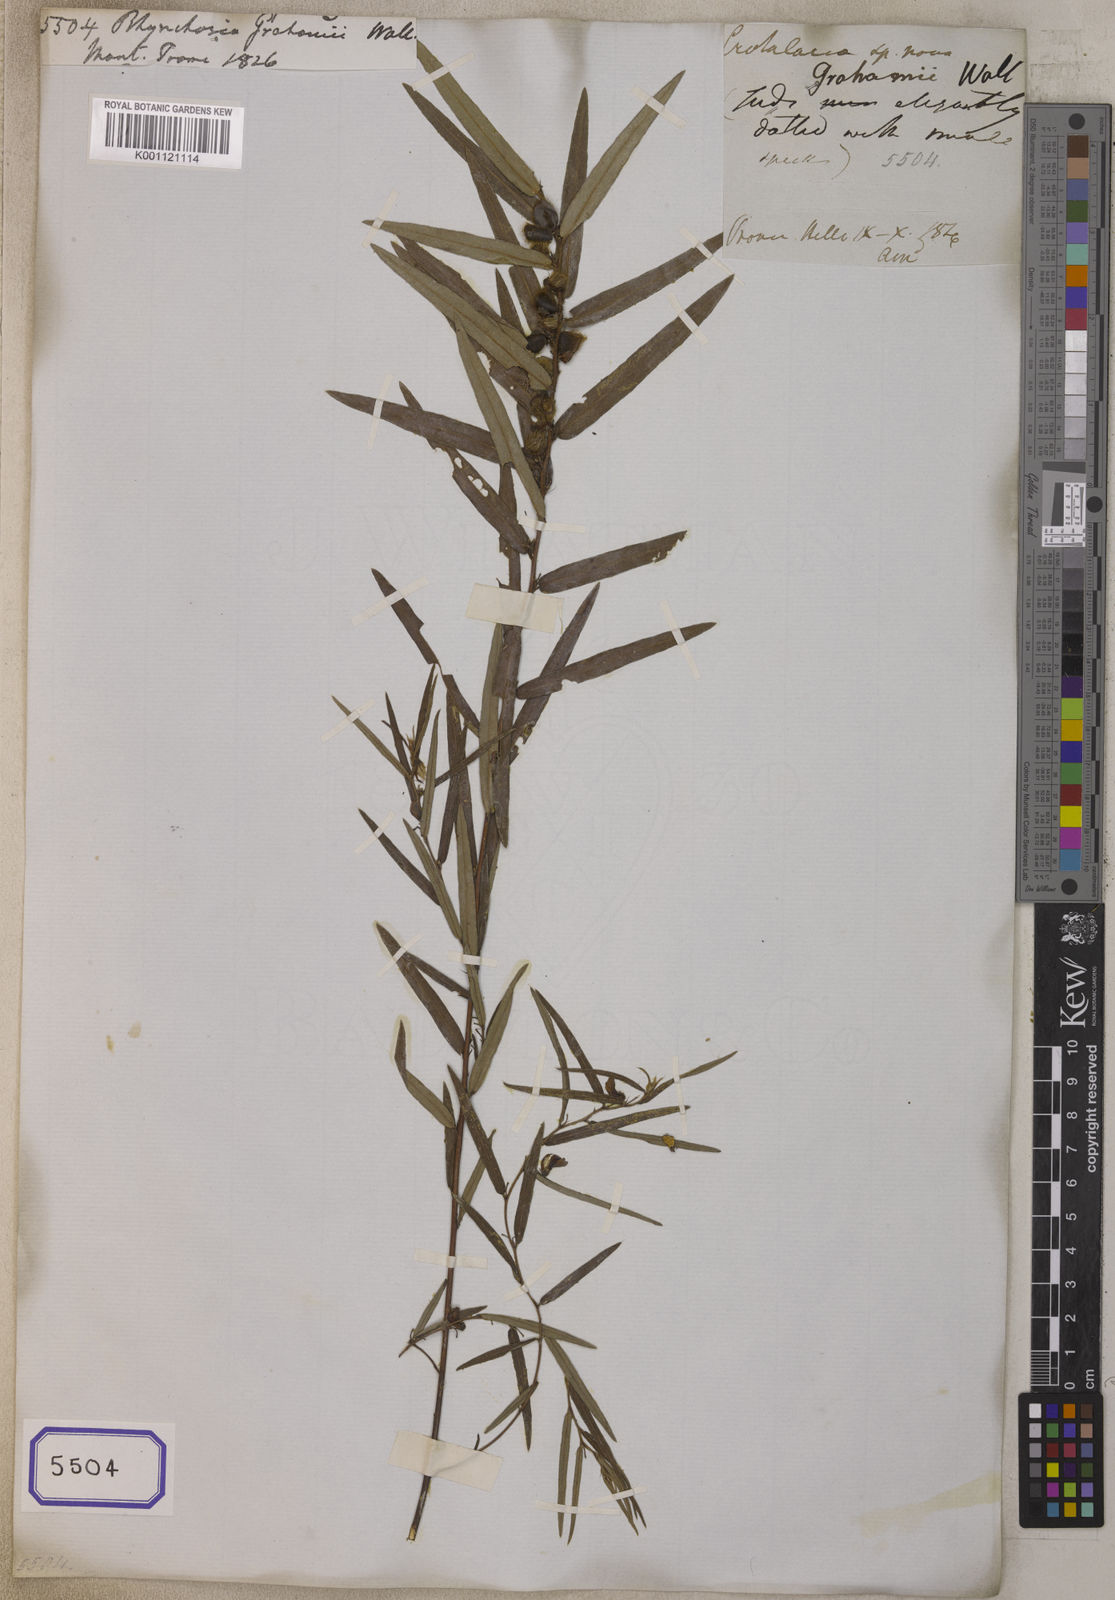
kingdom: Plantae
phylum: Tracheophyta
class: Magnoliopsida
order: Fabales
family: Fabaceae
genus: Eriosema
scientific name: Eriosema chinense
